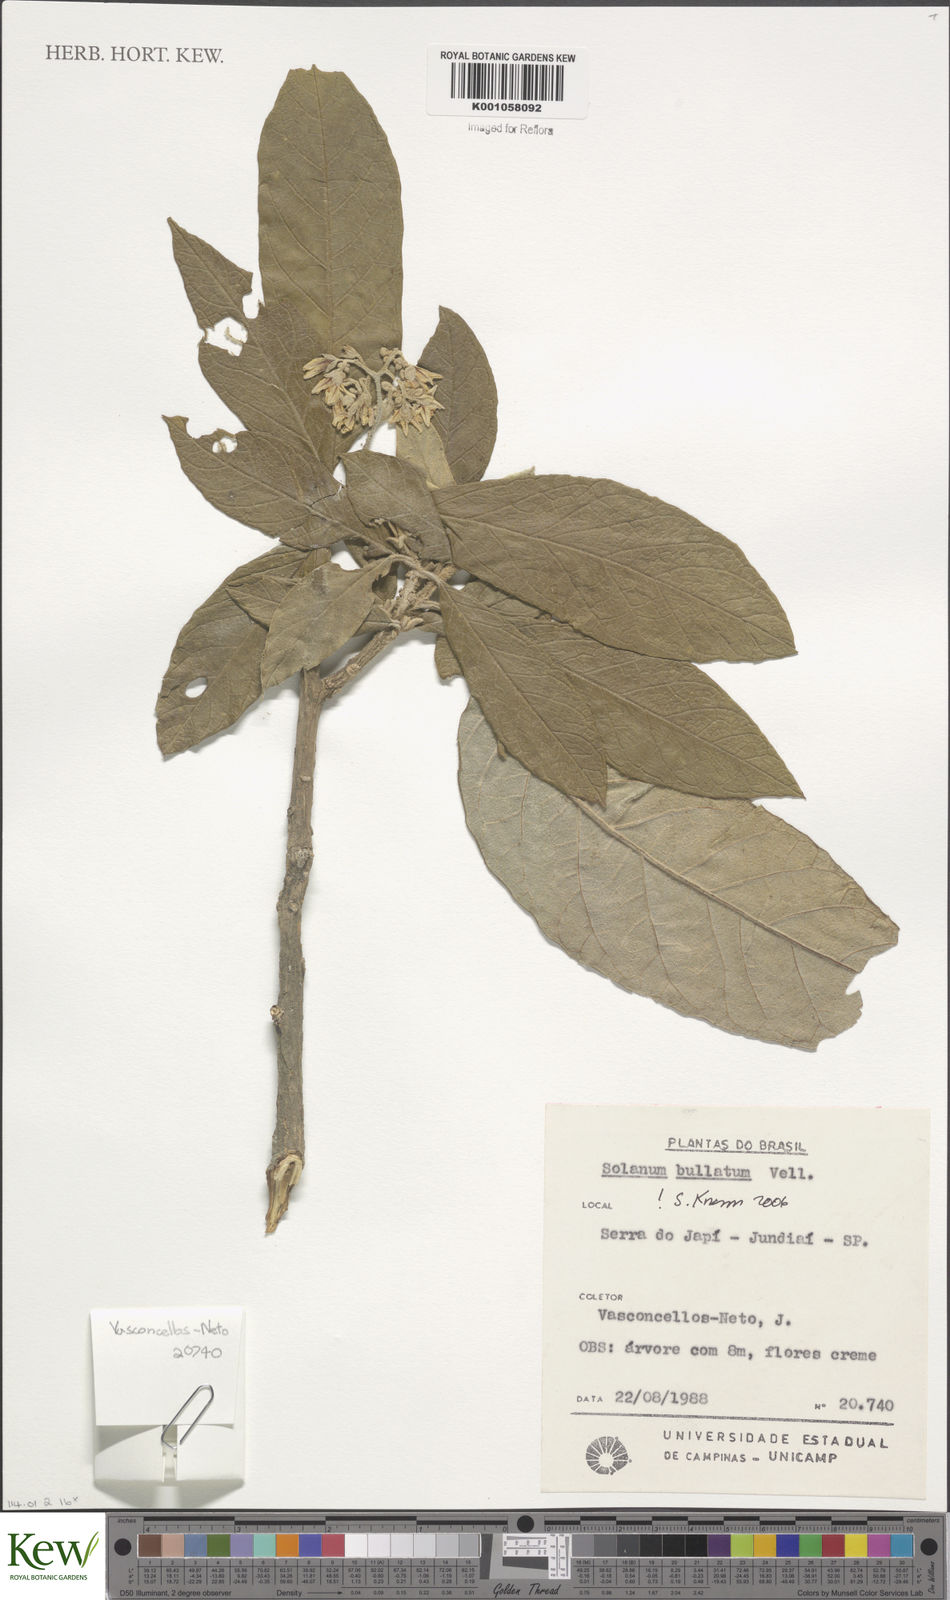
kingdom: Plantae
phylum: Tracheophyta
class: Magnoliopsida
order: Solanales
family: Solanaceae
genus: Solanum
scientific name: Solanum bullatum
